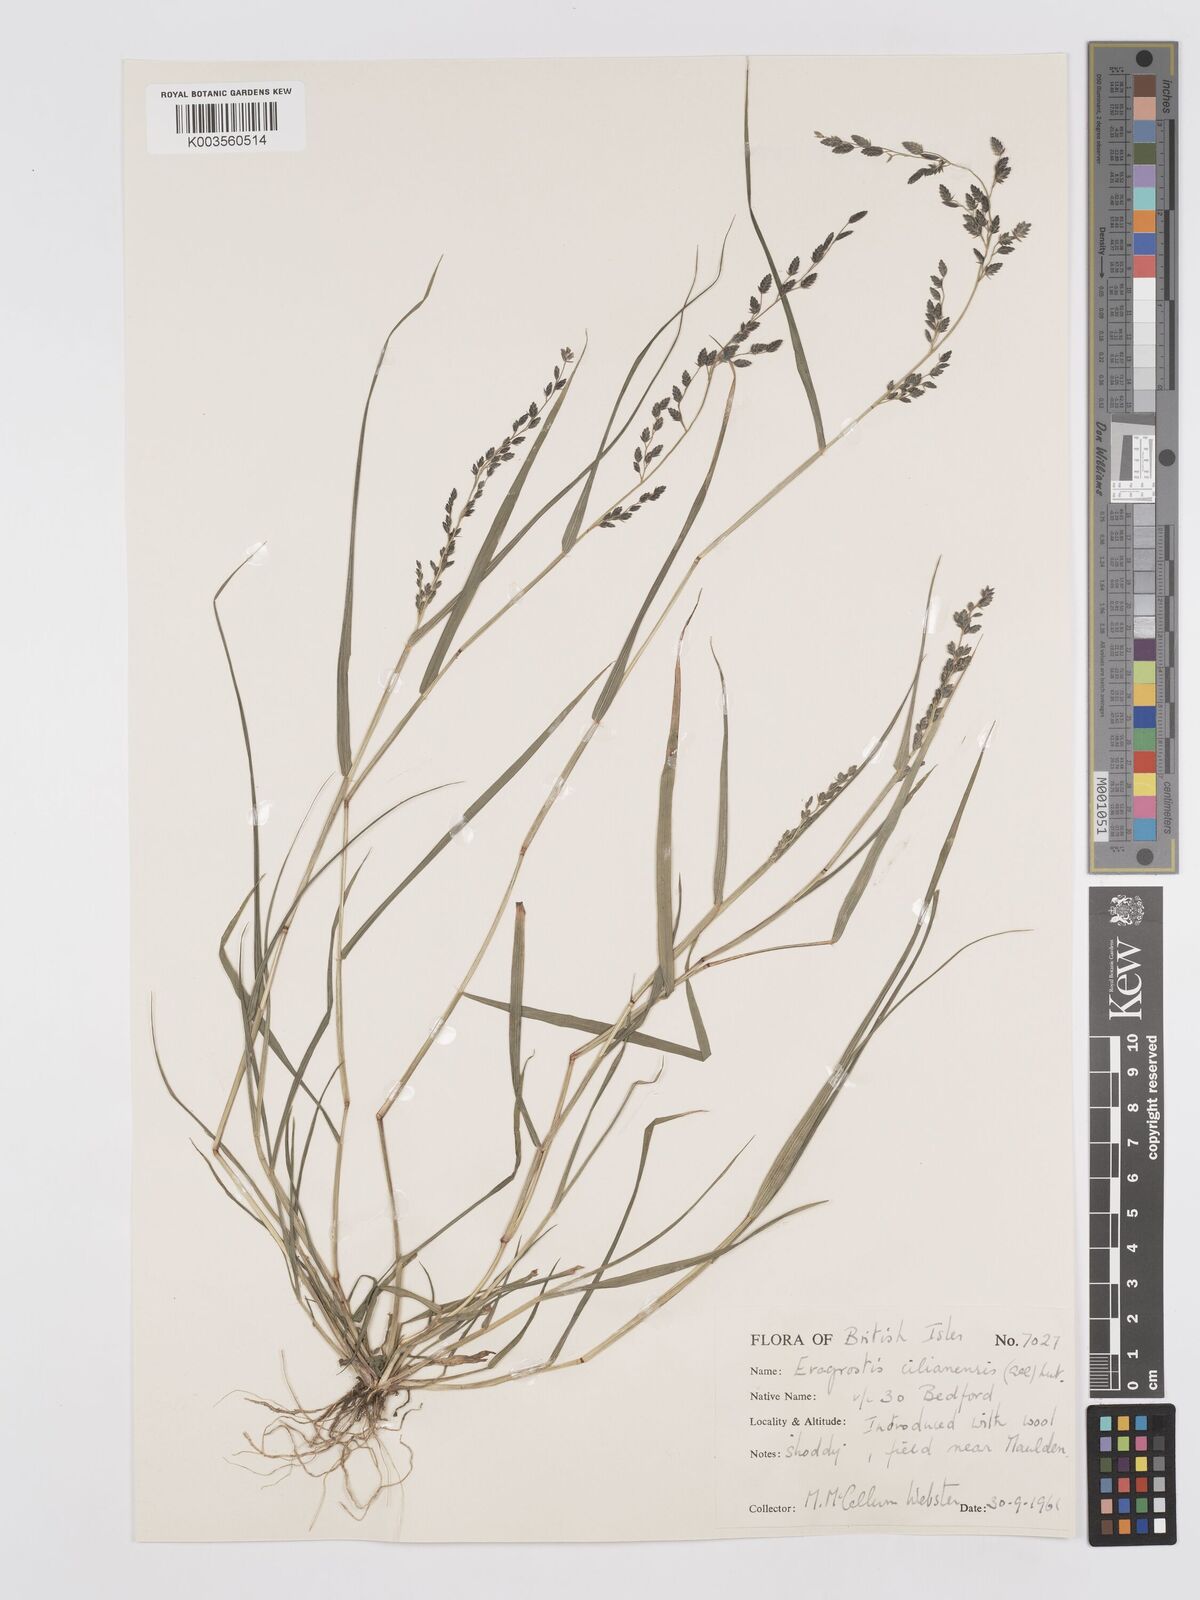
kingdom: Plantae
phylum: Tracheophyta
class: Liliopsida
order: Poales
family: Poaceae
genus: Eragrostis
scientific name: Eragrostis cilianensis
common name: Stinkgrass
